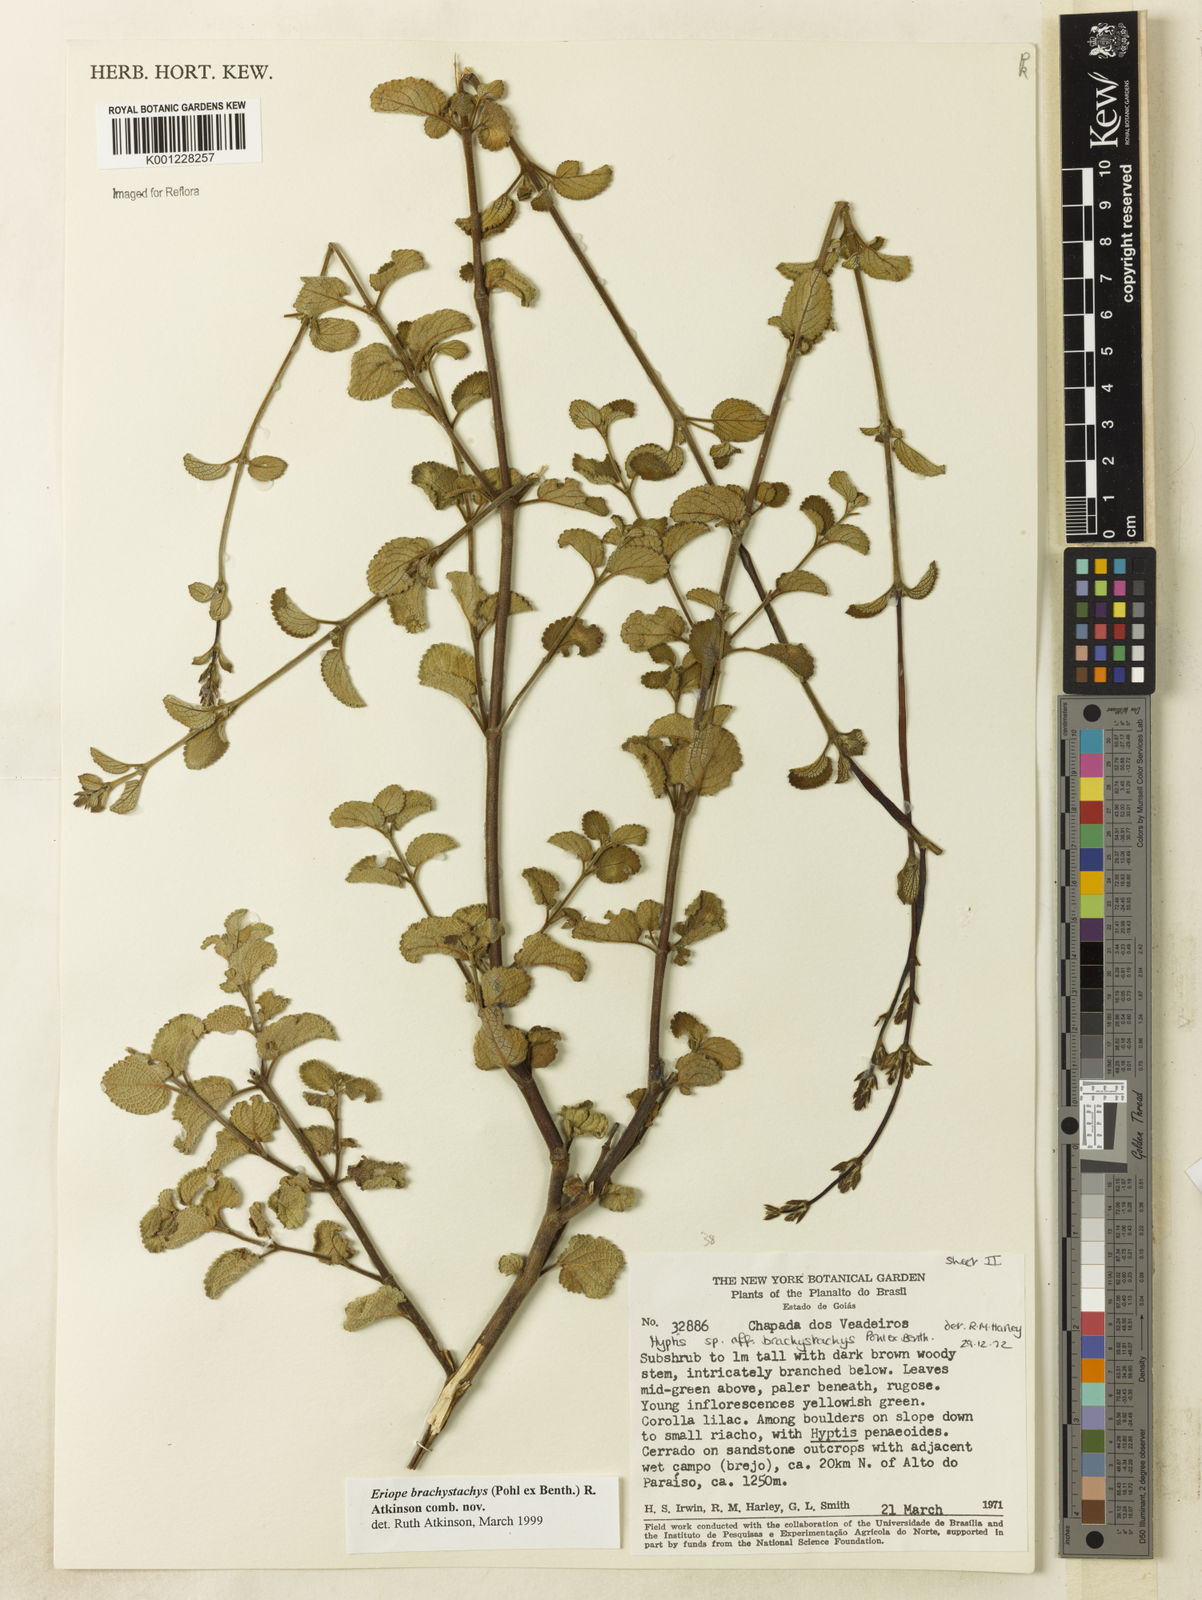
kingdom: Plantae
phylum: Tracheophyta
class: Magnoliopsida
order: Lamiales
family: Lamiaceae
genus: Hypenia
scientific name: Hypenia brachystachys
